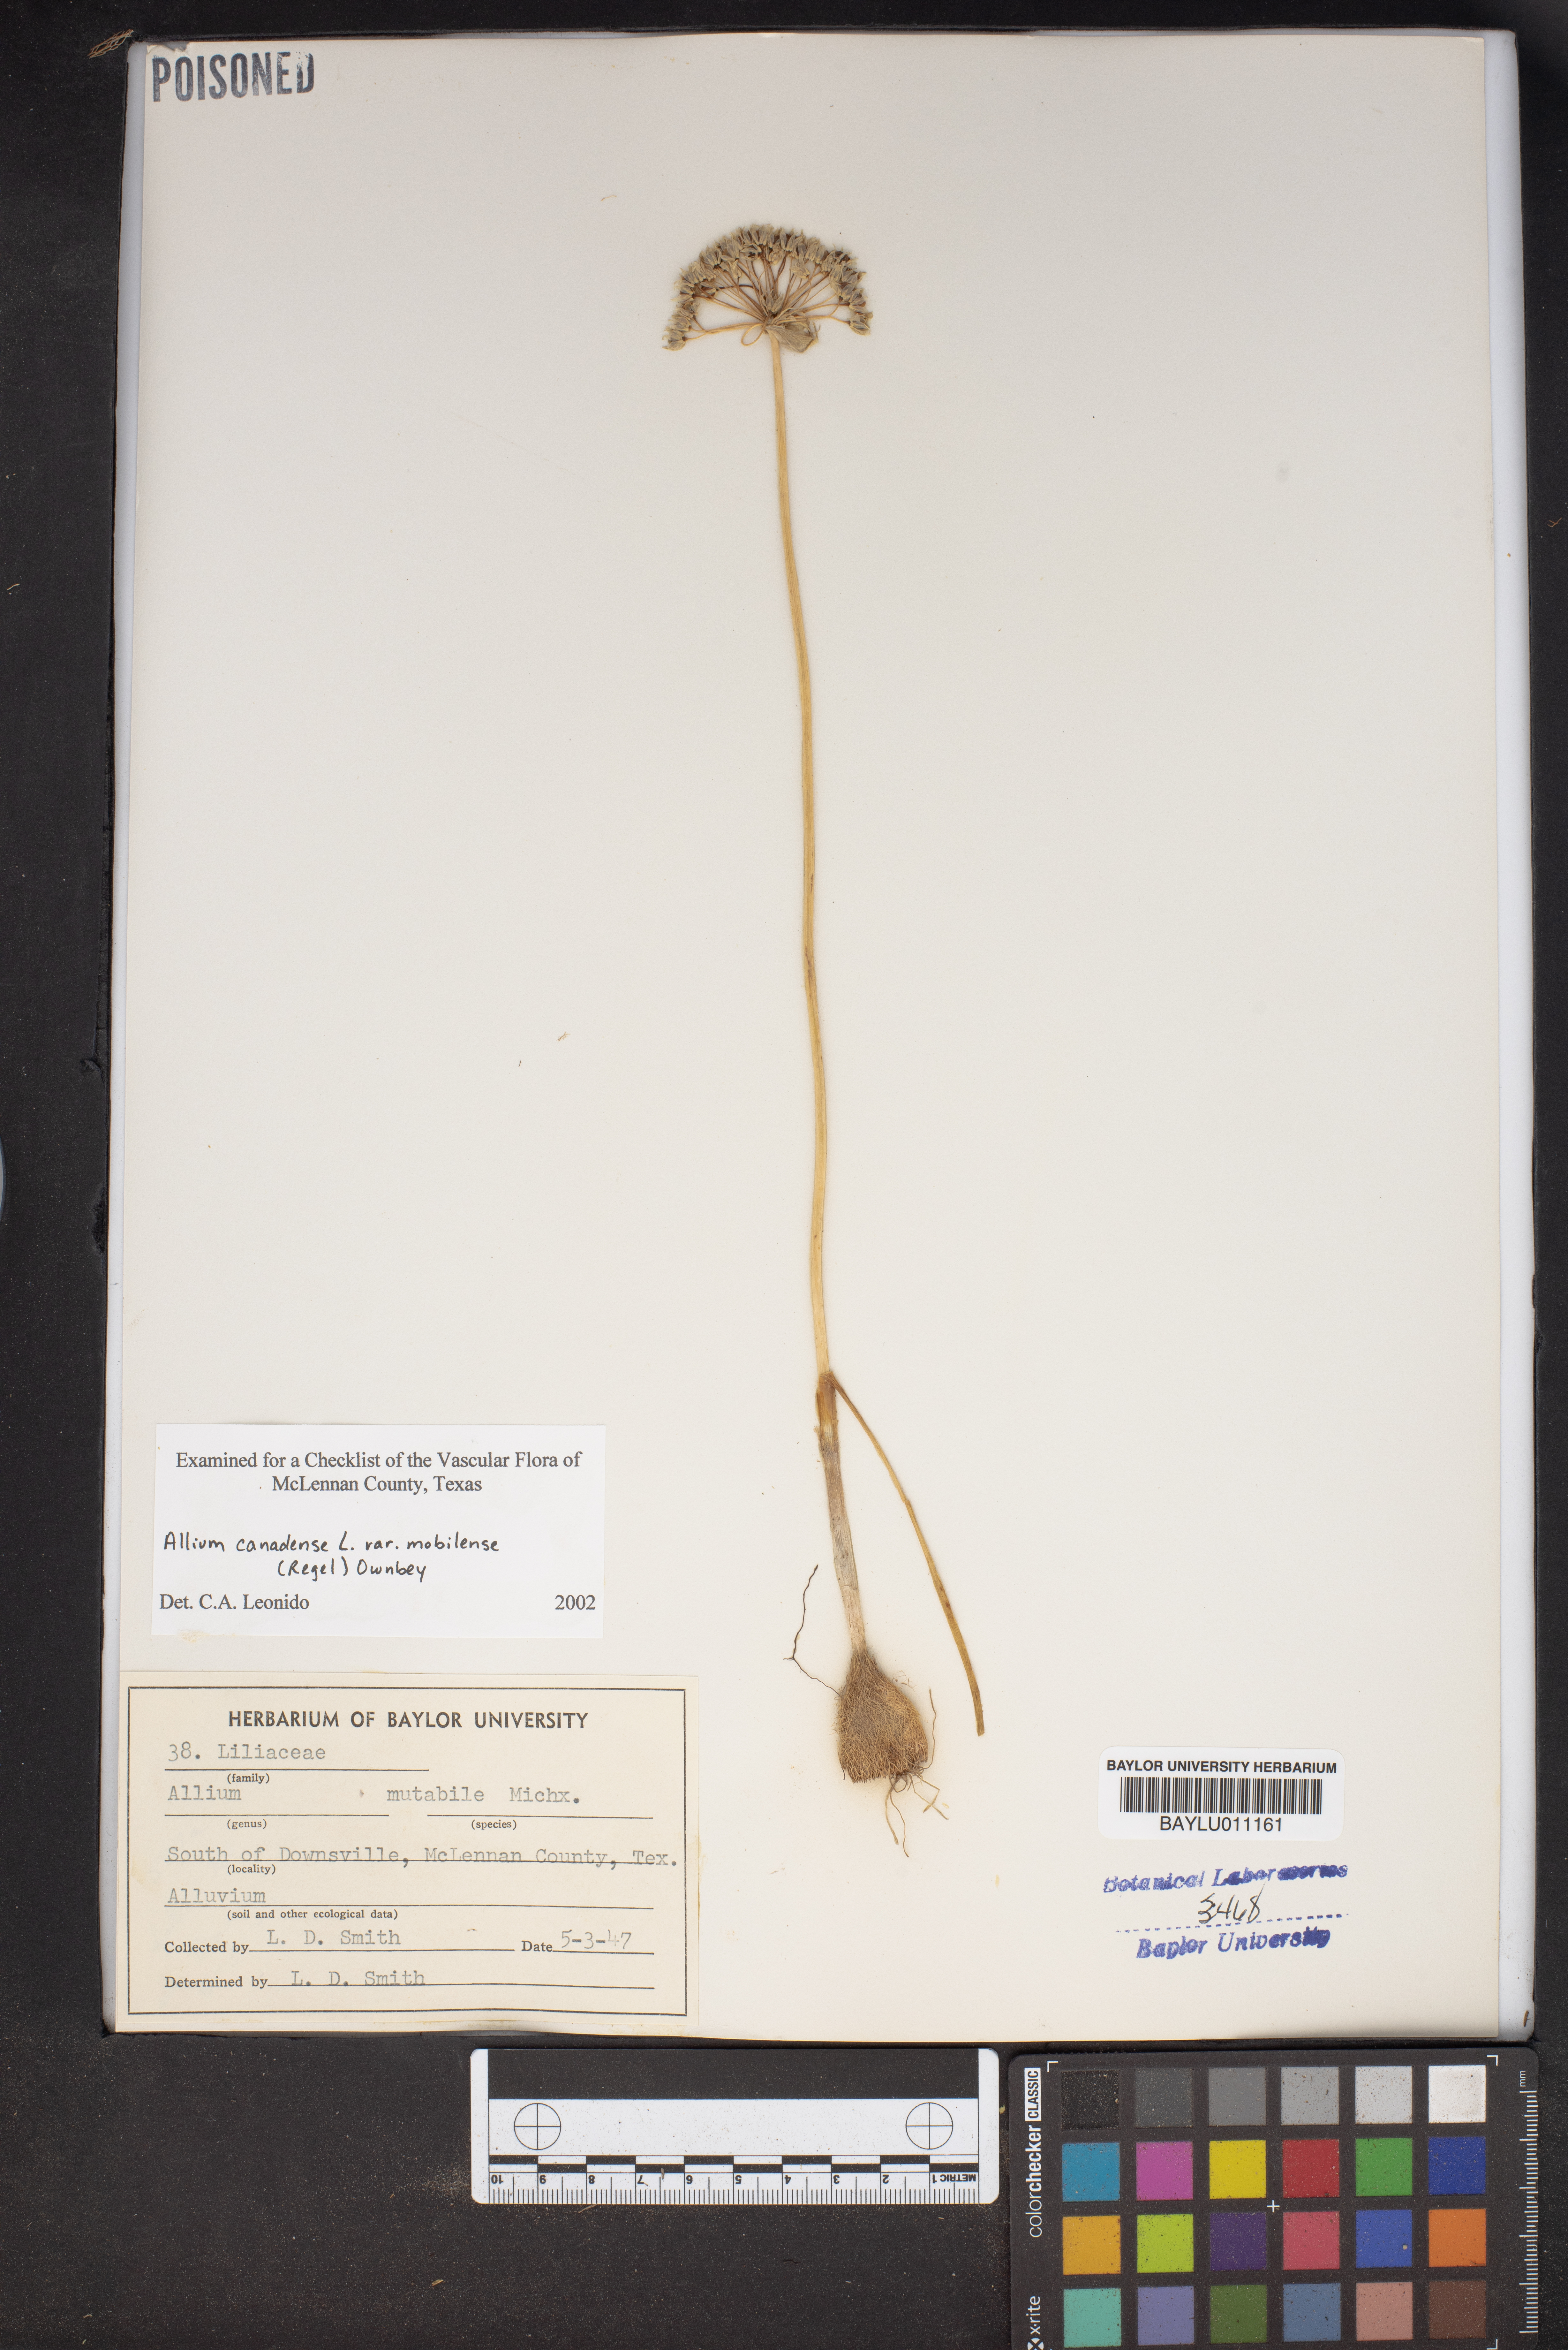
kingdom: Plantae
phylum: Tracheophyta
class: Liliopsida
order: Asparagales
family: Amaryllidaceae
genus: Allium
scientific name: Allium canadense
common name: Meadow garlic
